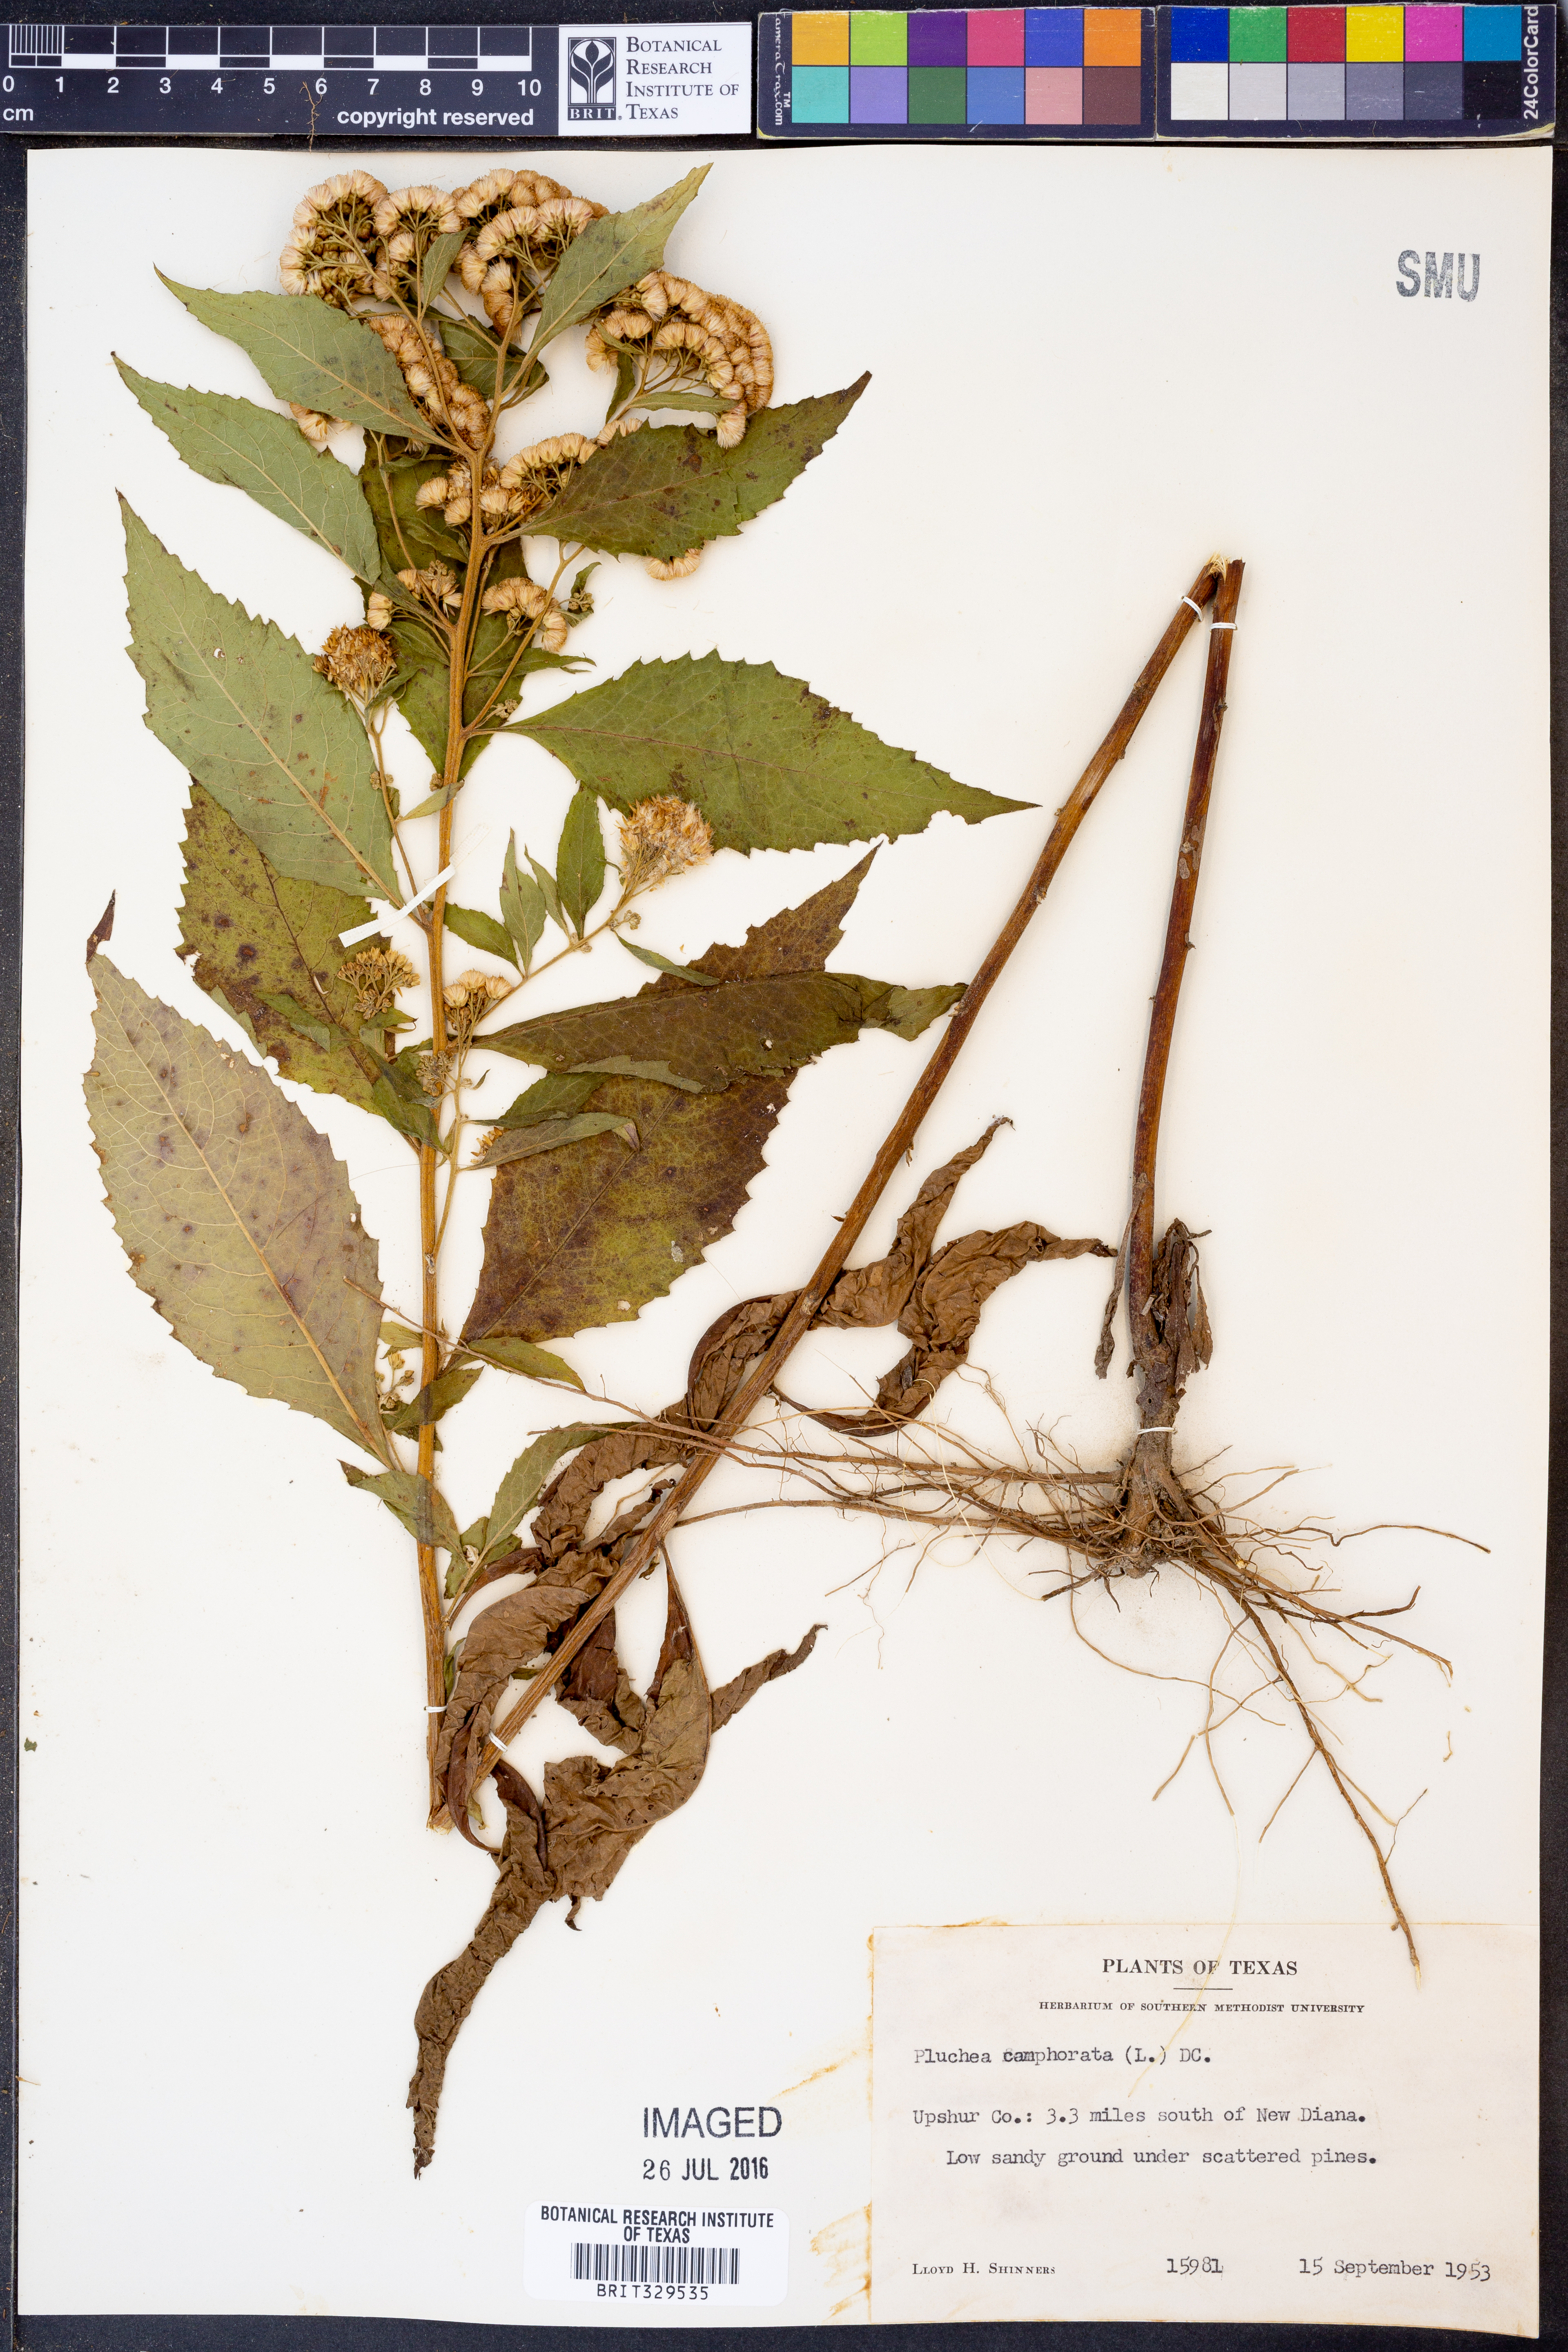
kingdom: Plantae
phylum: Tracheophyta
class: Magnoliopsida
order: Asterales
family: Asteraceae
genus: Pluchea
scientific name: Pluchea camphorata
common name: Camphor pluchea
